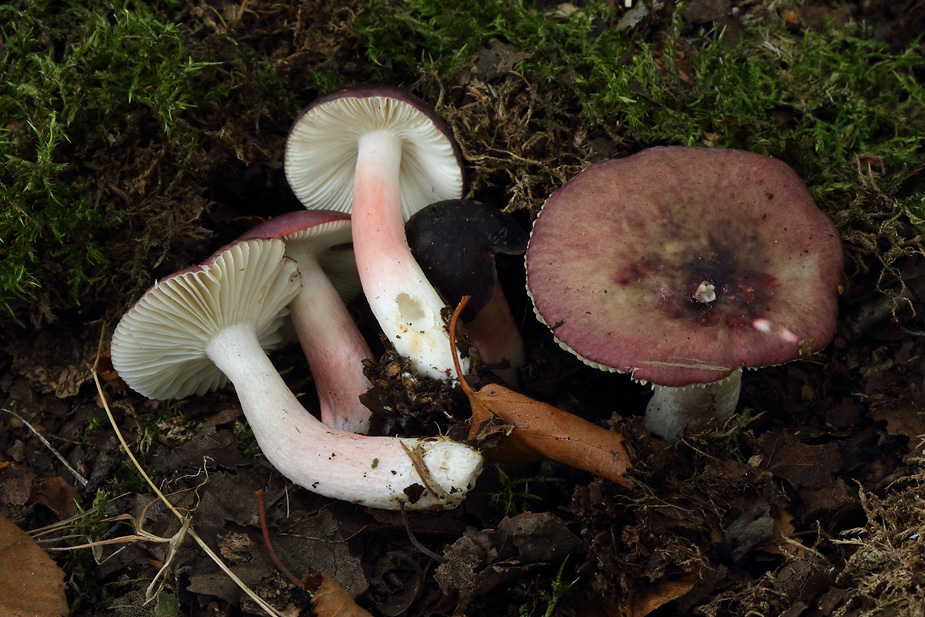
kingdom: Fungi
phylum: Basidiomycota
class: Agaricomycetes
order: Russulales
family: Russulaceae
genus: Russula
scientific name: Russula gracillima
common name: slank skørhat
